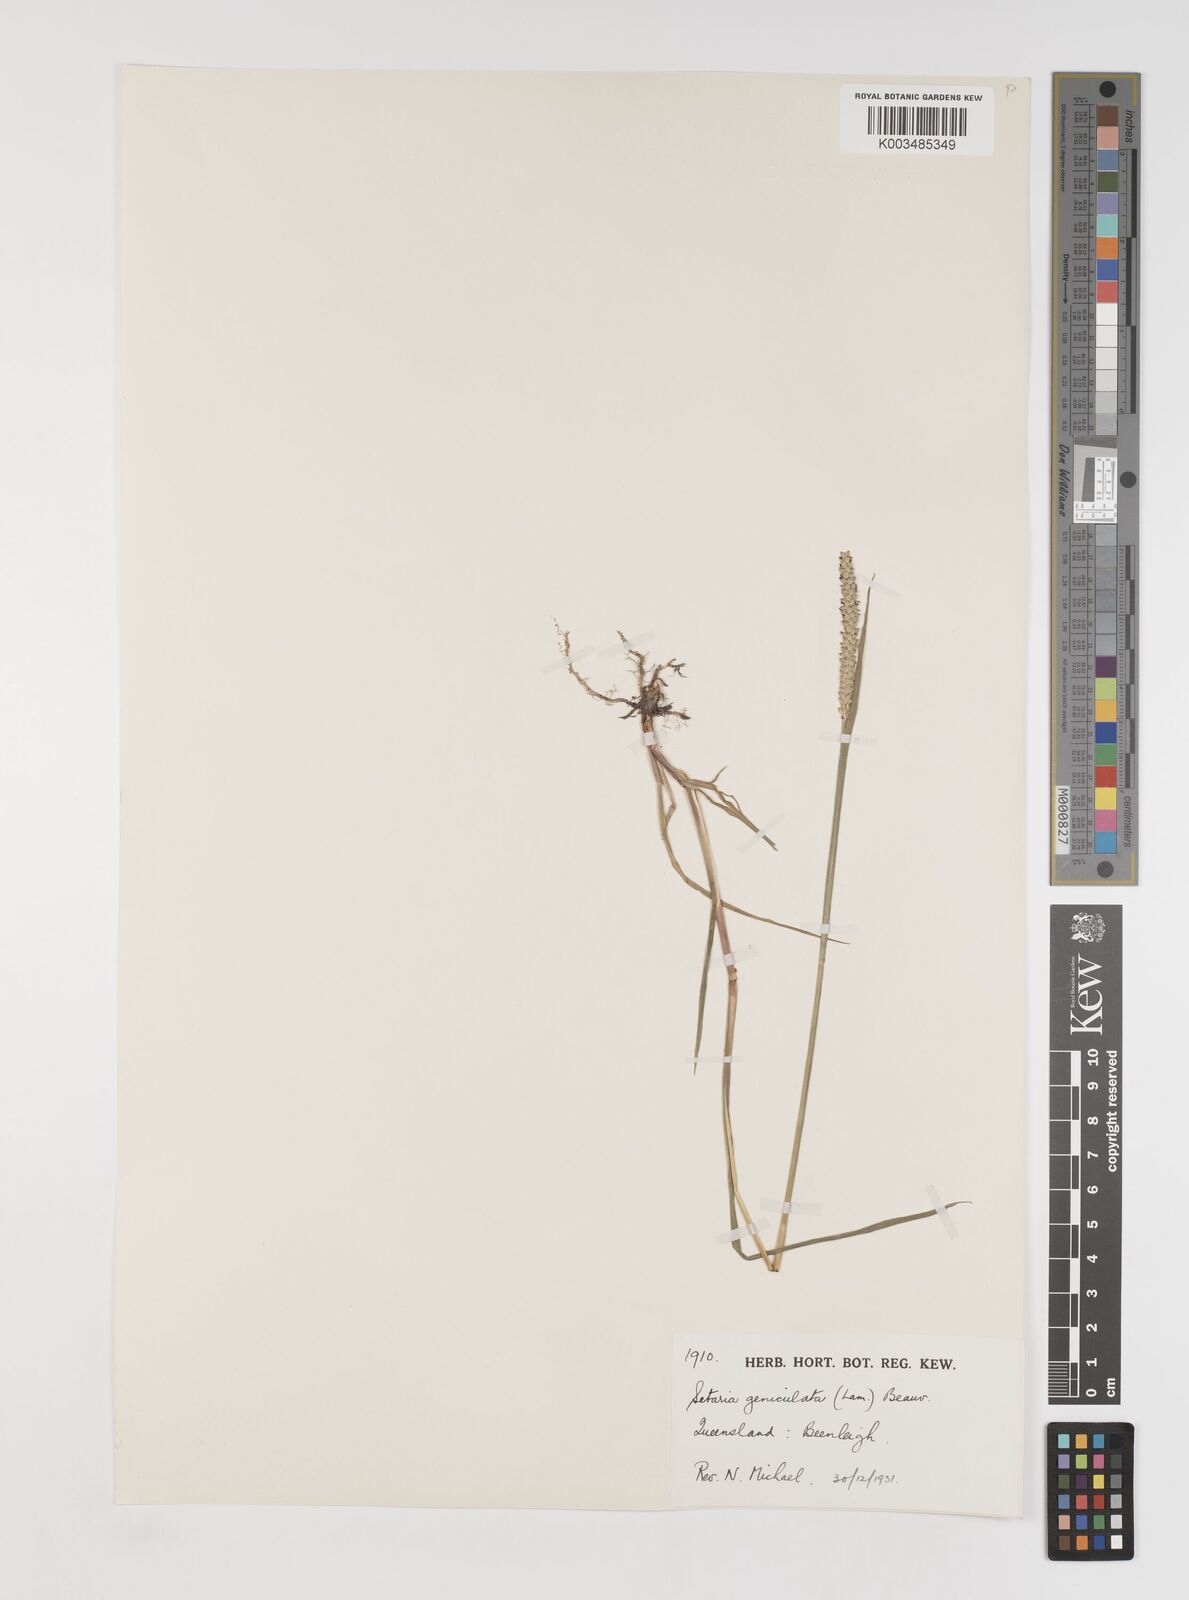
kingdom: Plantae
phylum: Tracheophyta
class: Liliopsida
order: Poales
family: Poaceae
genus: Setaria
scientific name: Setaria parviflora
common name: Knotroot bristle-grass
